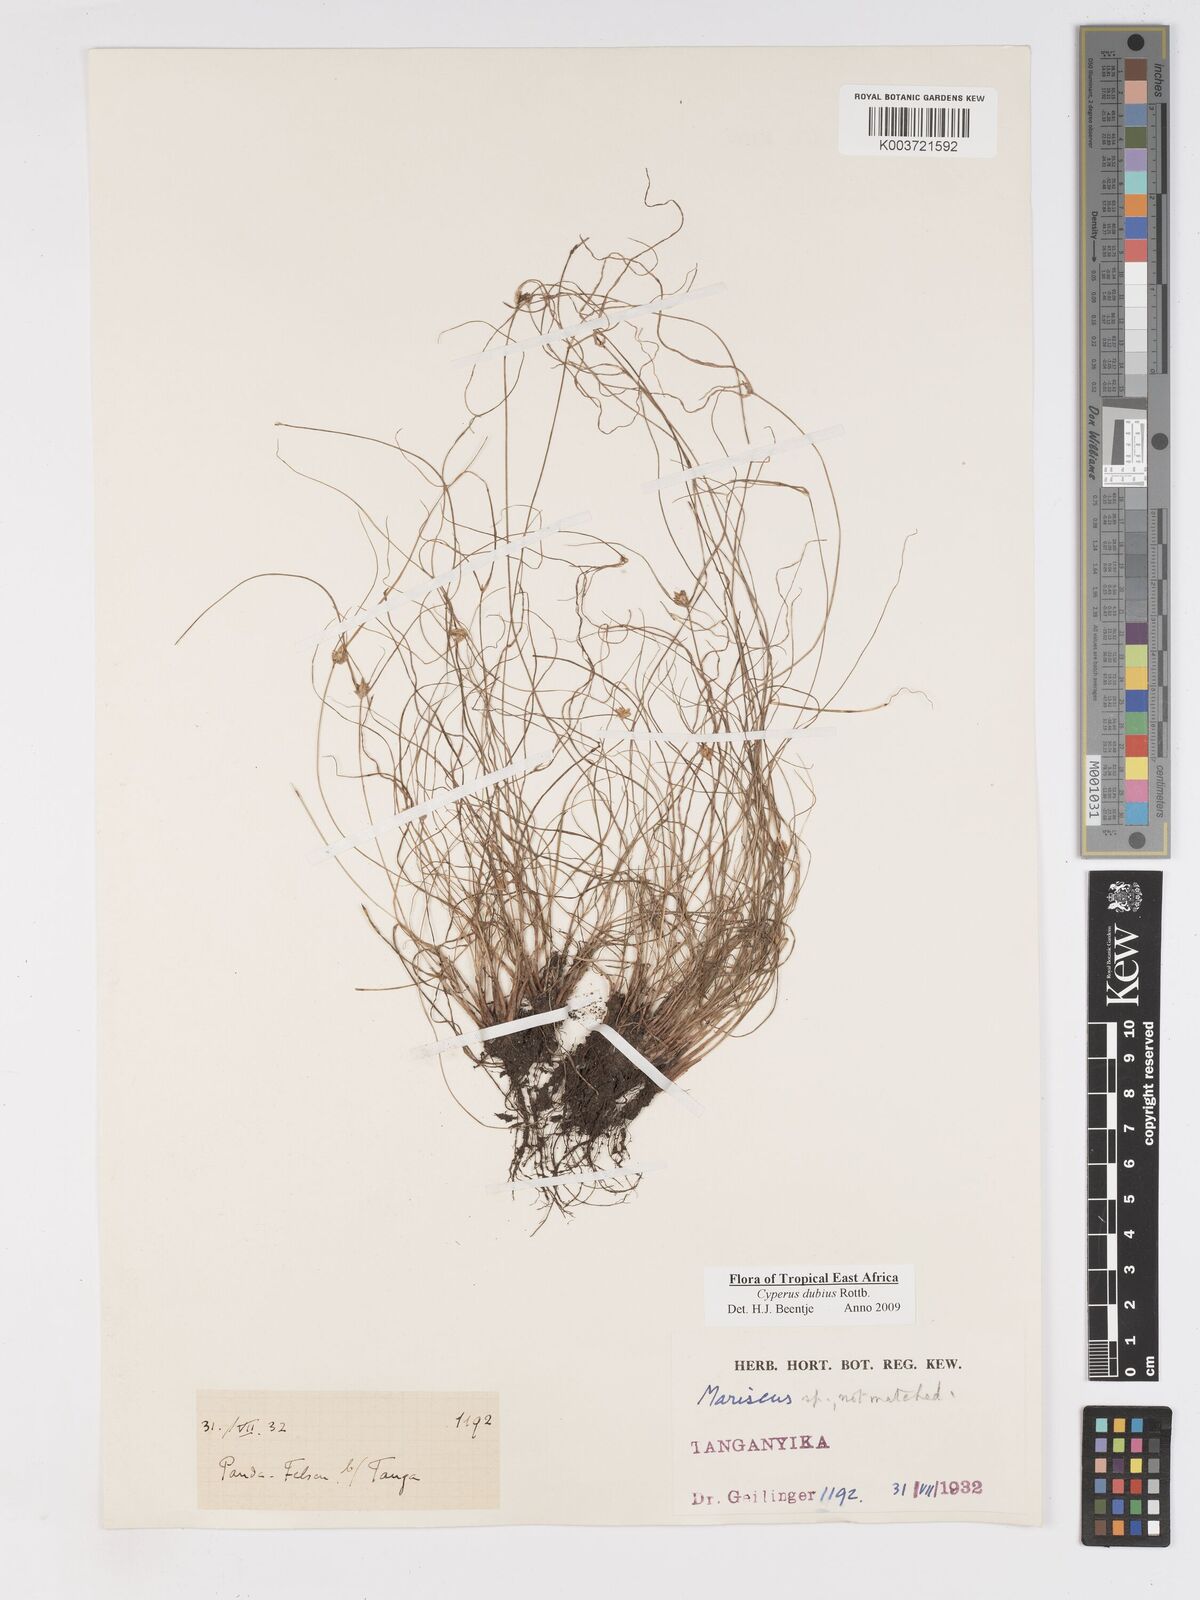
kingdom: Plantae
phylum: Tracheophyta
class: Liliopsida
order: Poales
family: Cyperaceae
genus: Cyperus
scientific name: Cyperus dubius
